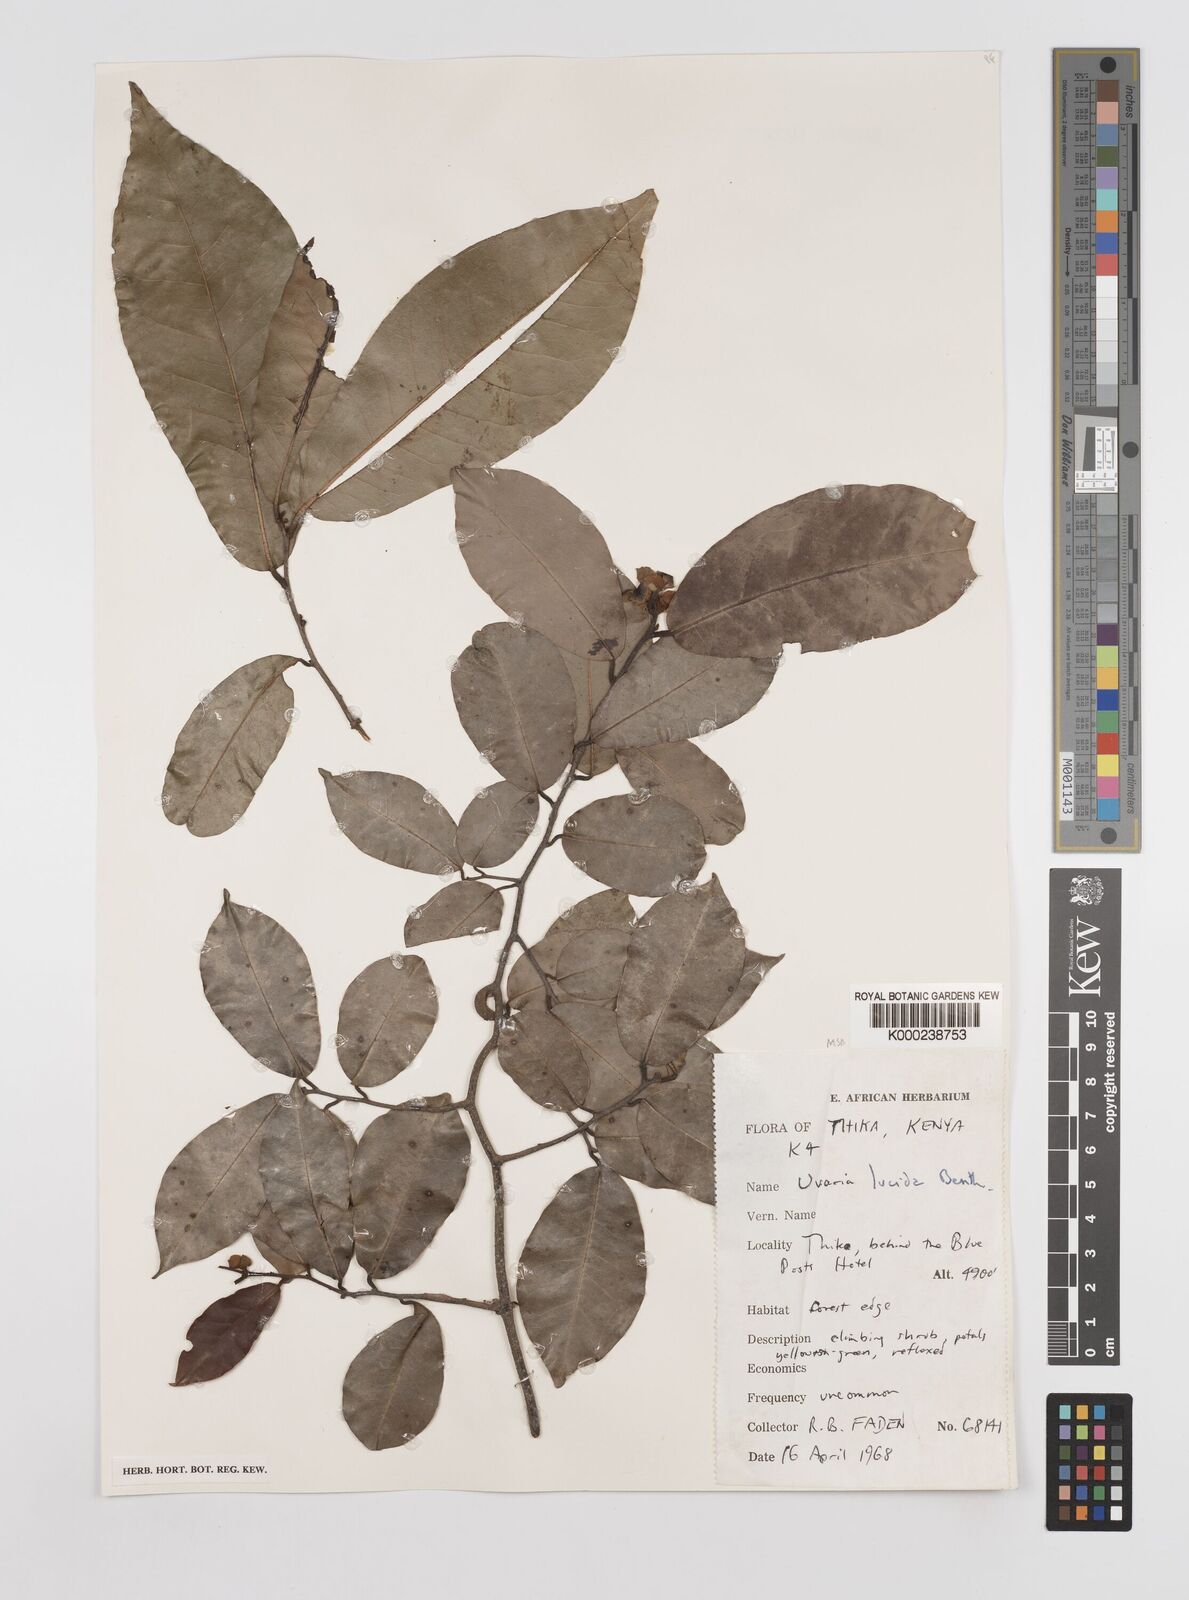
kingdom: Plantae
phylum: Tracheophyta
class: Magnoliopsida
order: Magnoliales
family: Annonaceae
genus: Uvaria
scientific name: Uvaria lucida
